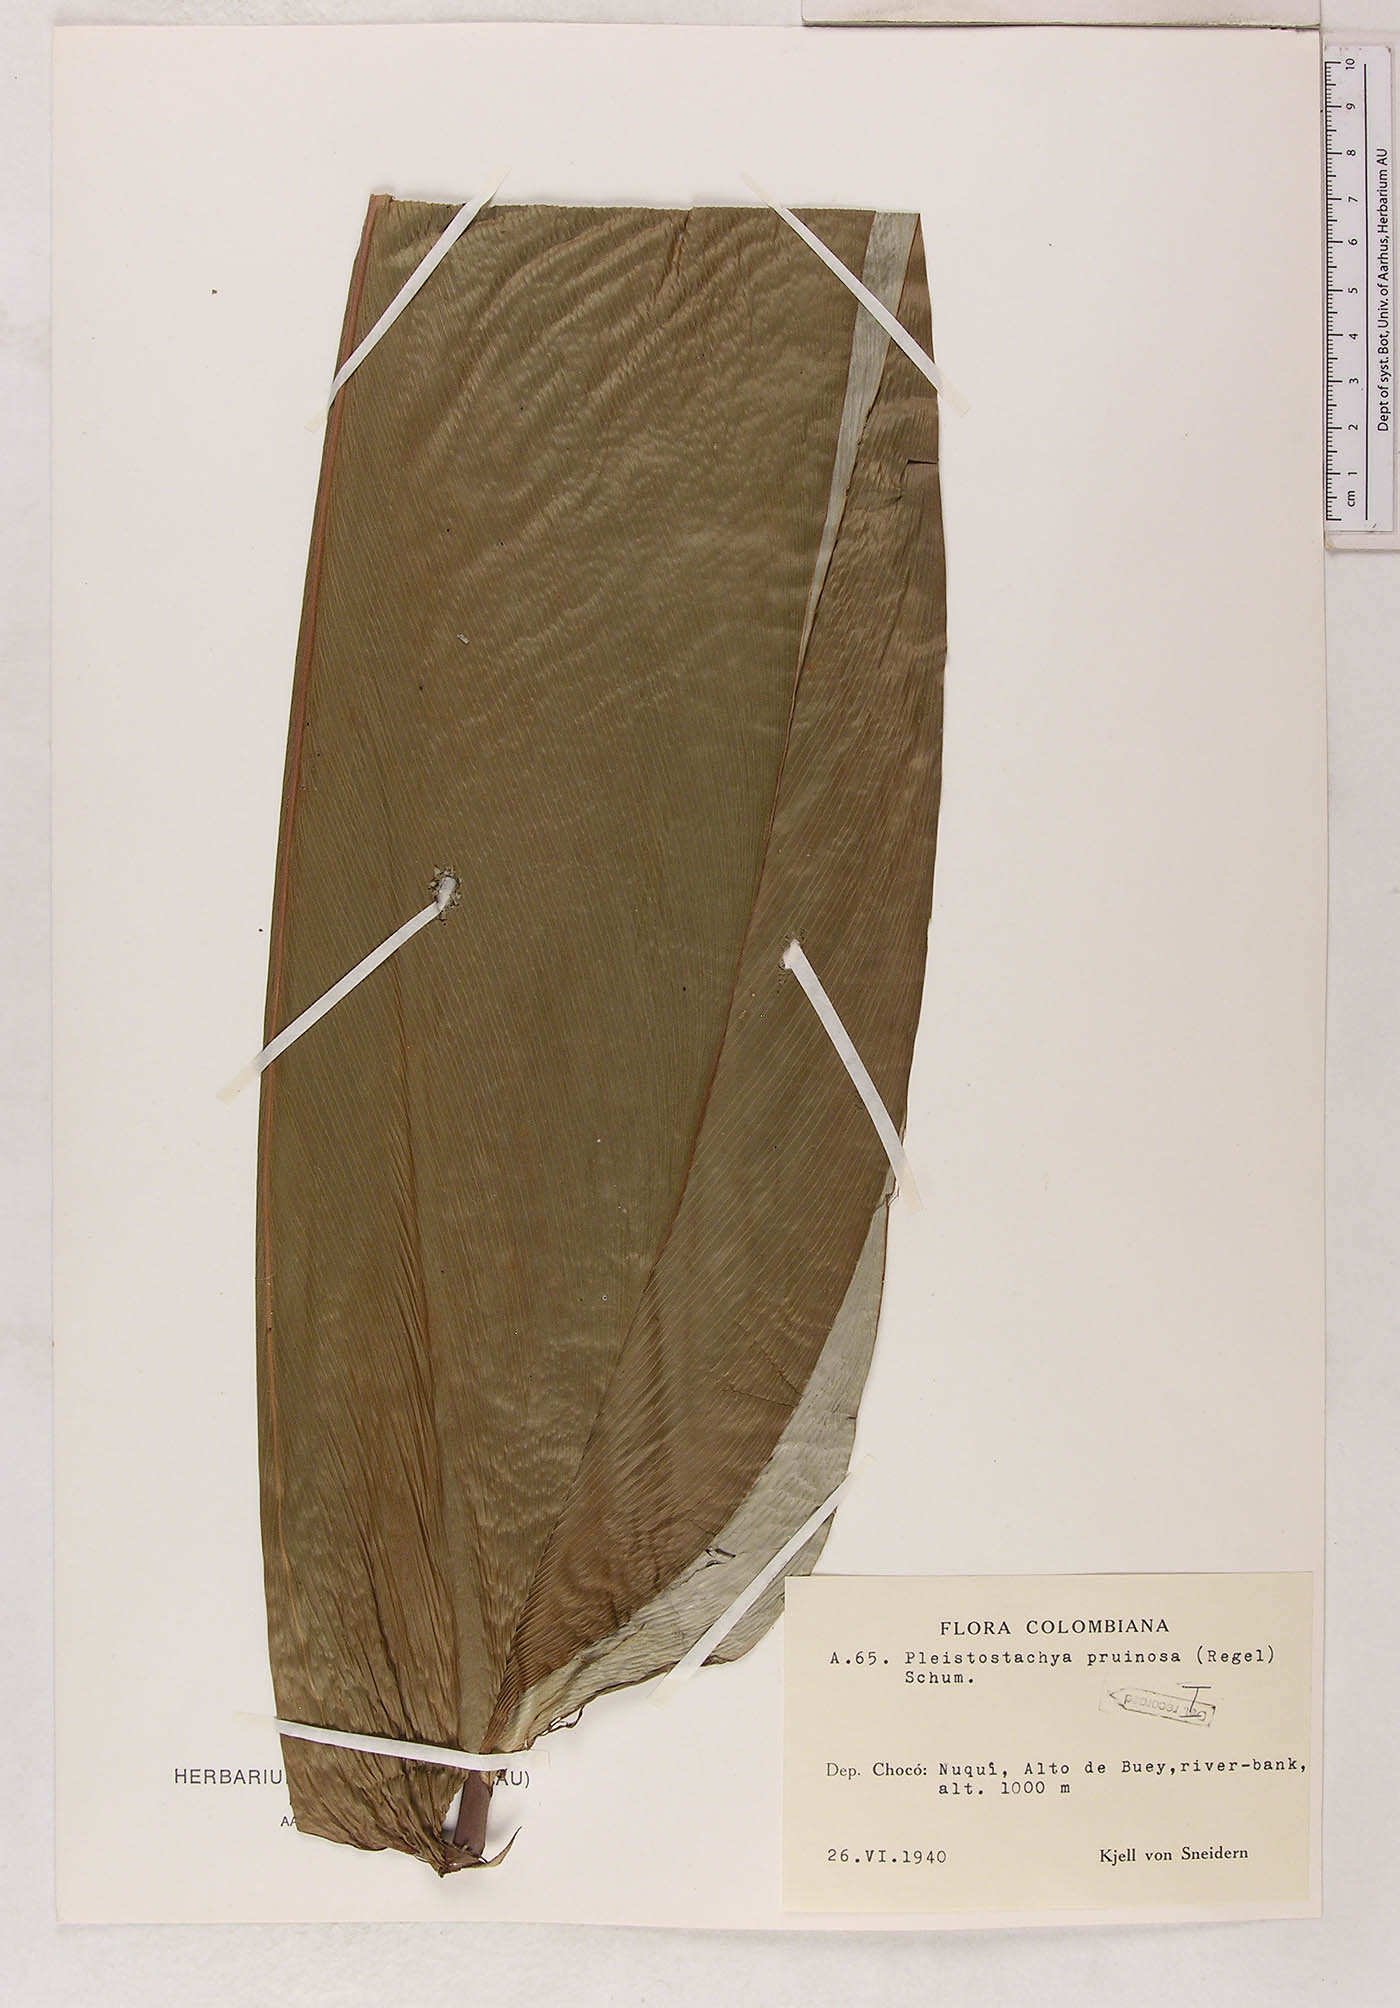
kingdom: Plantae
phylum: Tracheophyta
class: Liliopsida
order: Zingiberales
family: Marantaceae
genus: Pleiostachya
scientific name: Pleiostachya pruinosa
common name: Prayer plant
